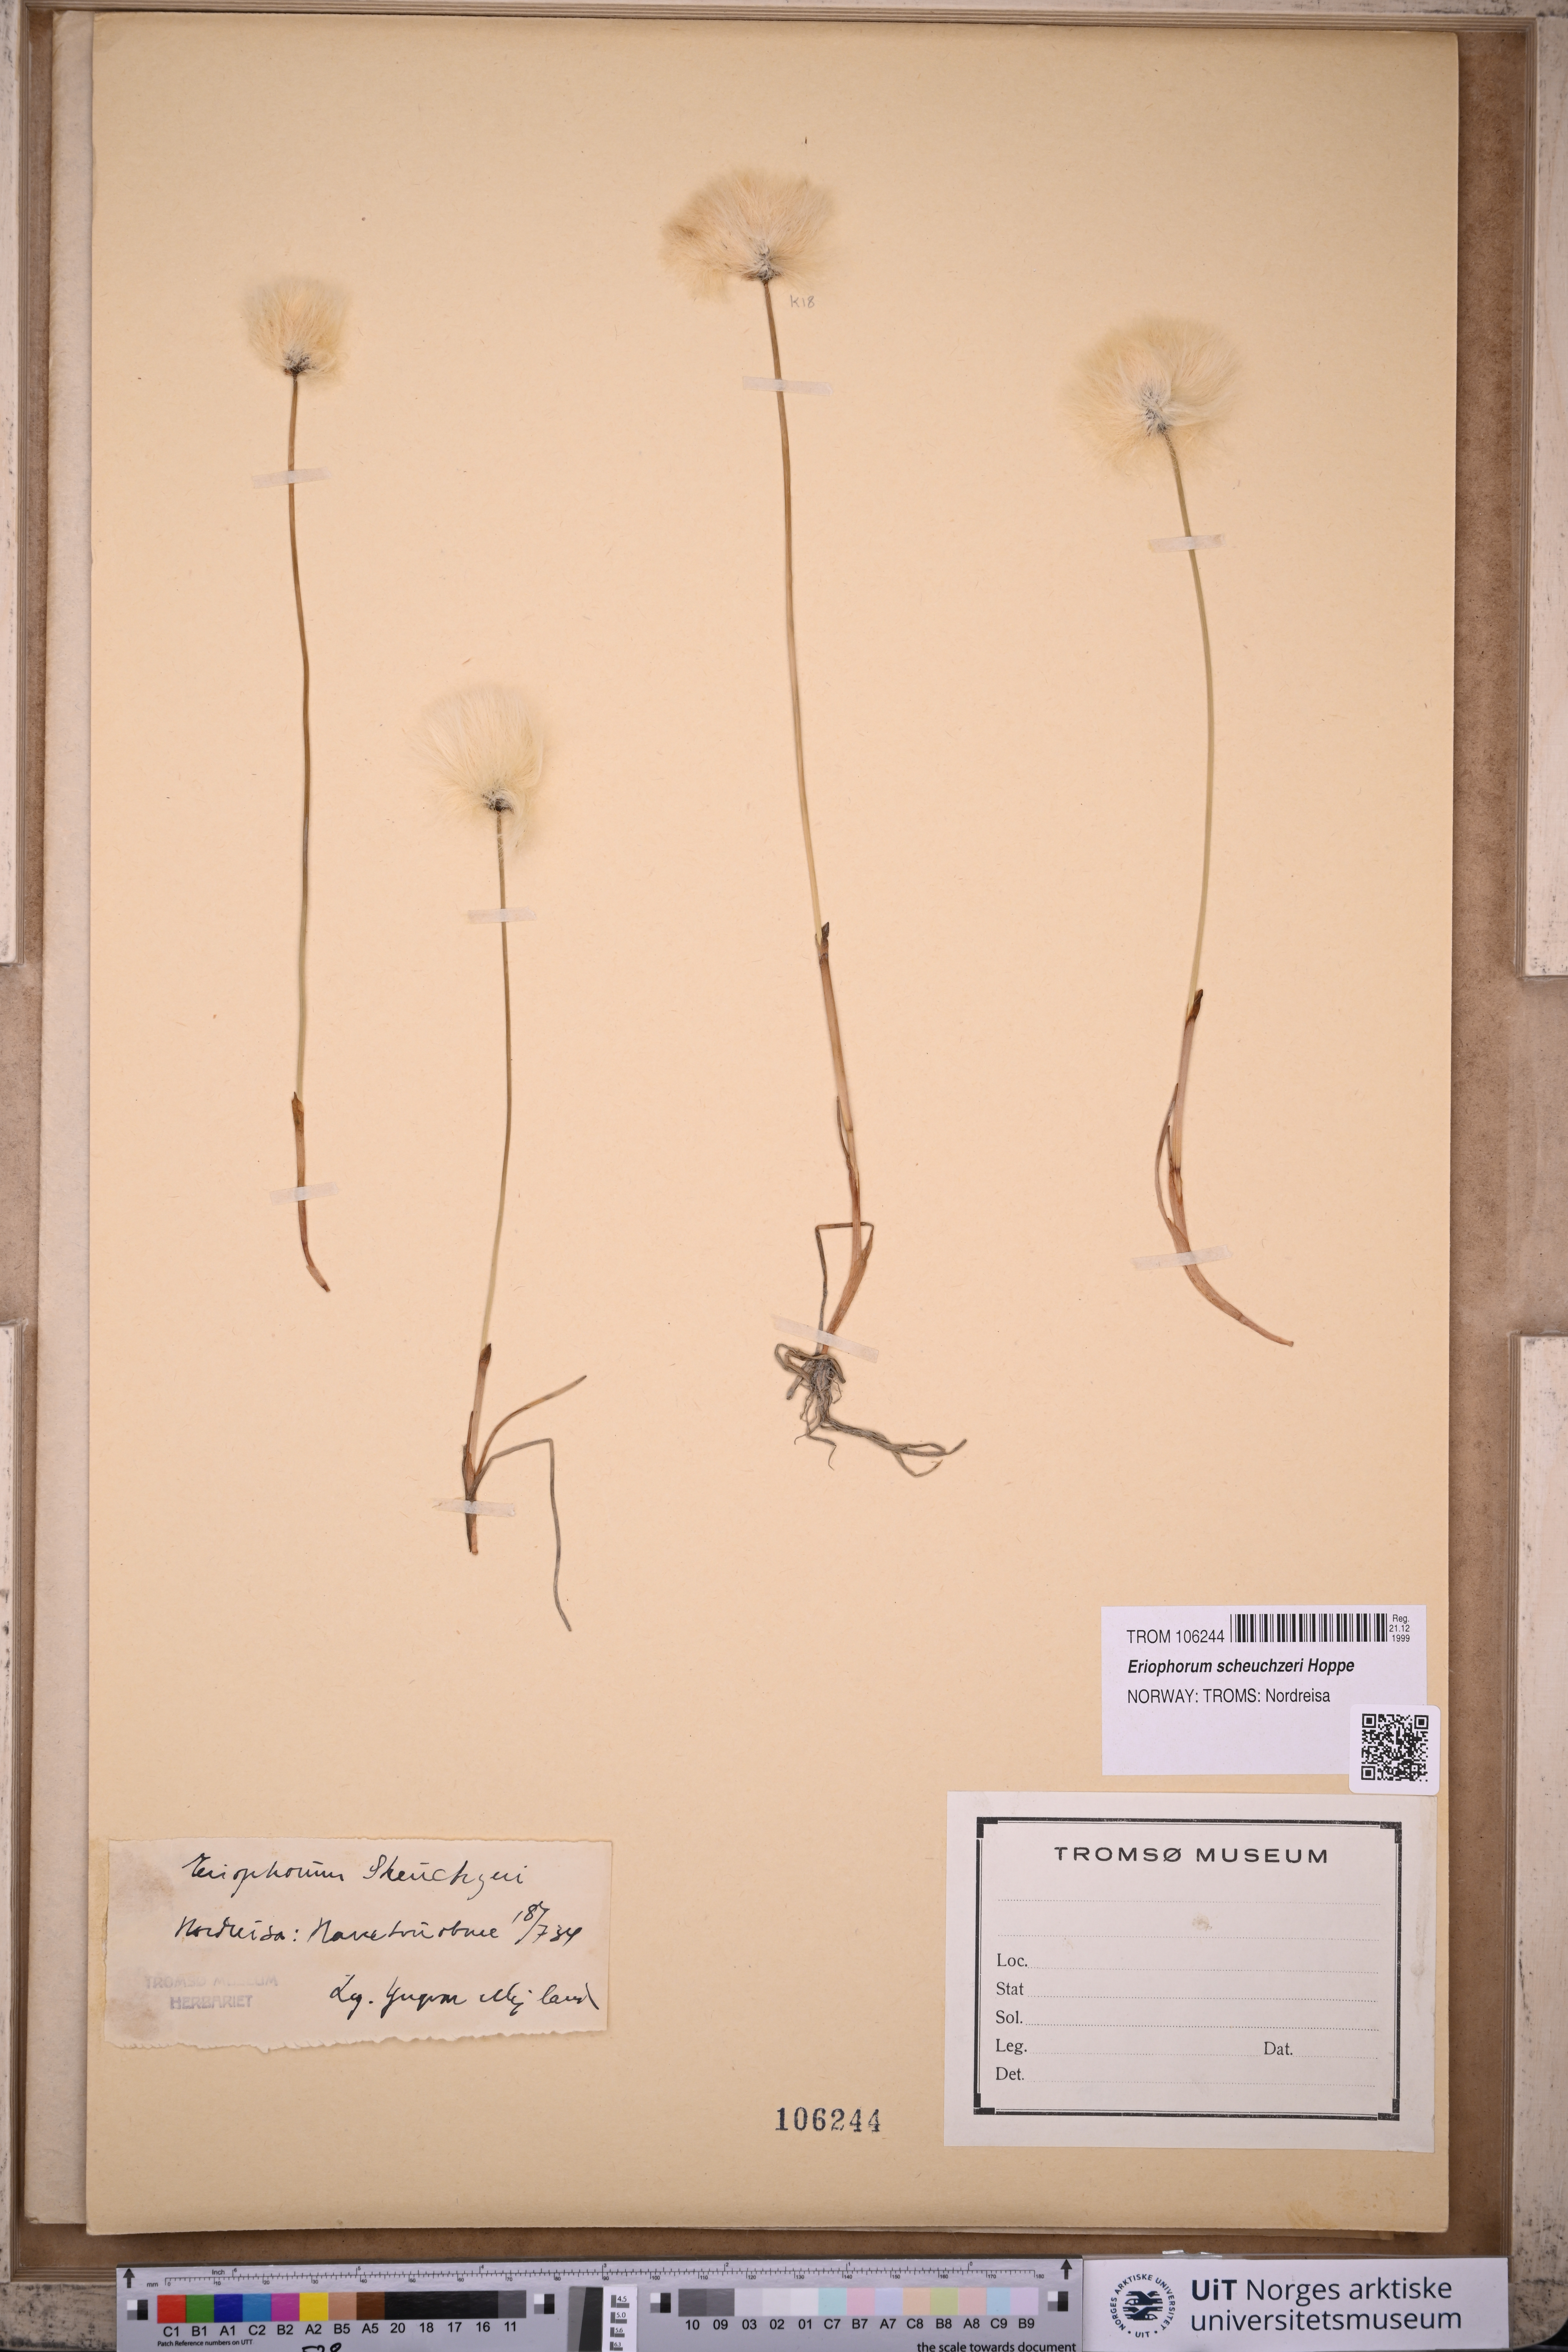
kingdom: Plantae
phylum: Tracheophyta
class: Liliopsida
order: Poales
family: Cyperaceae
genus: Eriophorum
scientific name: Eriophorum scheuchzeri
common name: Scheuchzer's cottongrass
